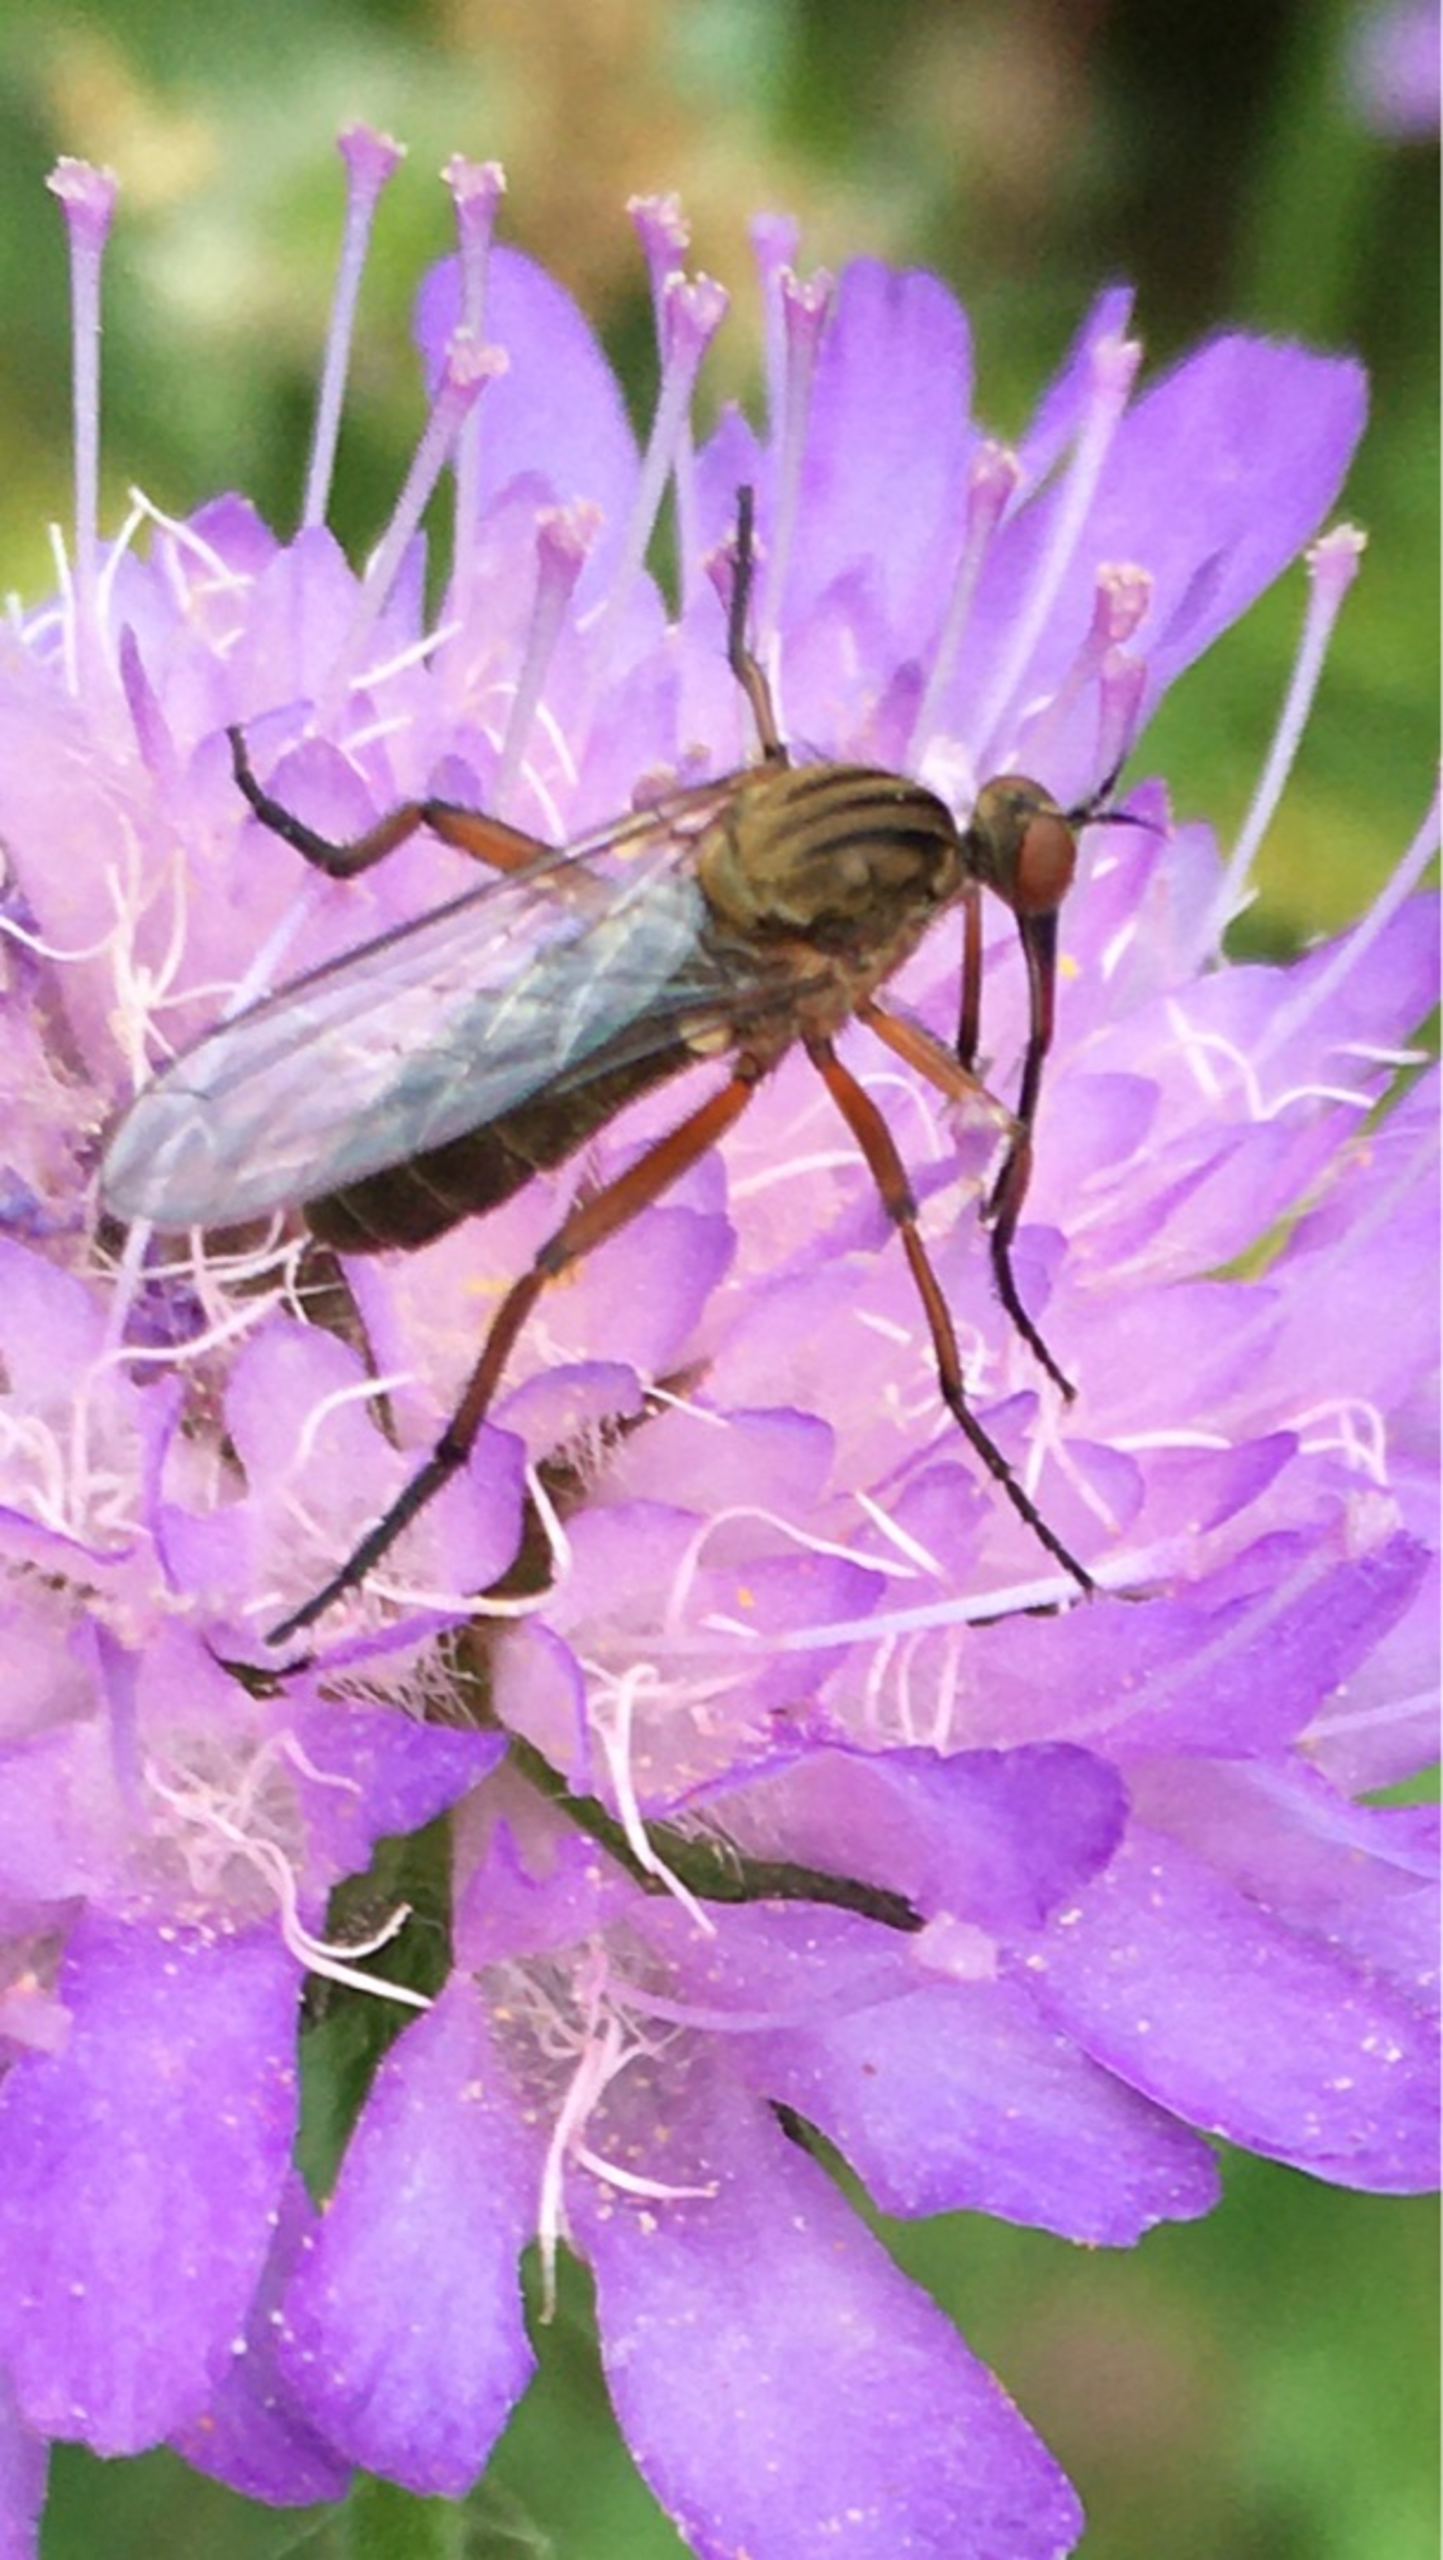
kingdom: Animalia
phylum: Arthropoda
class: Insecta
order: Diptera
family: Empididae
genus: Empis
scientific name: Empis livida
